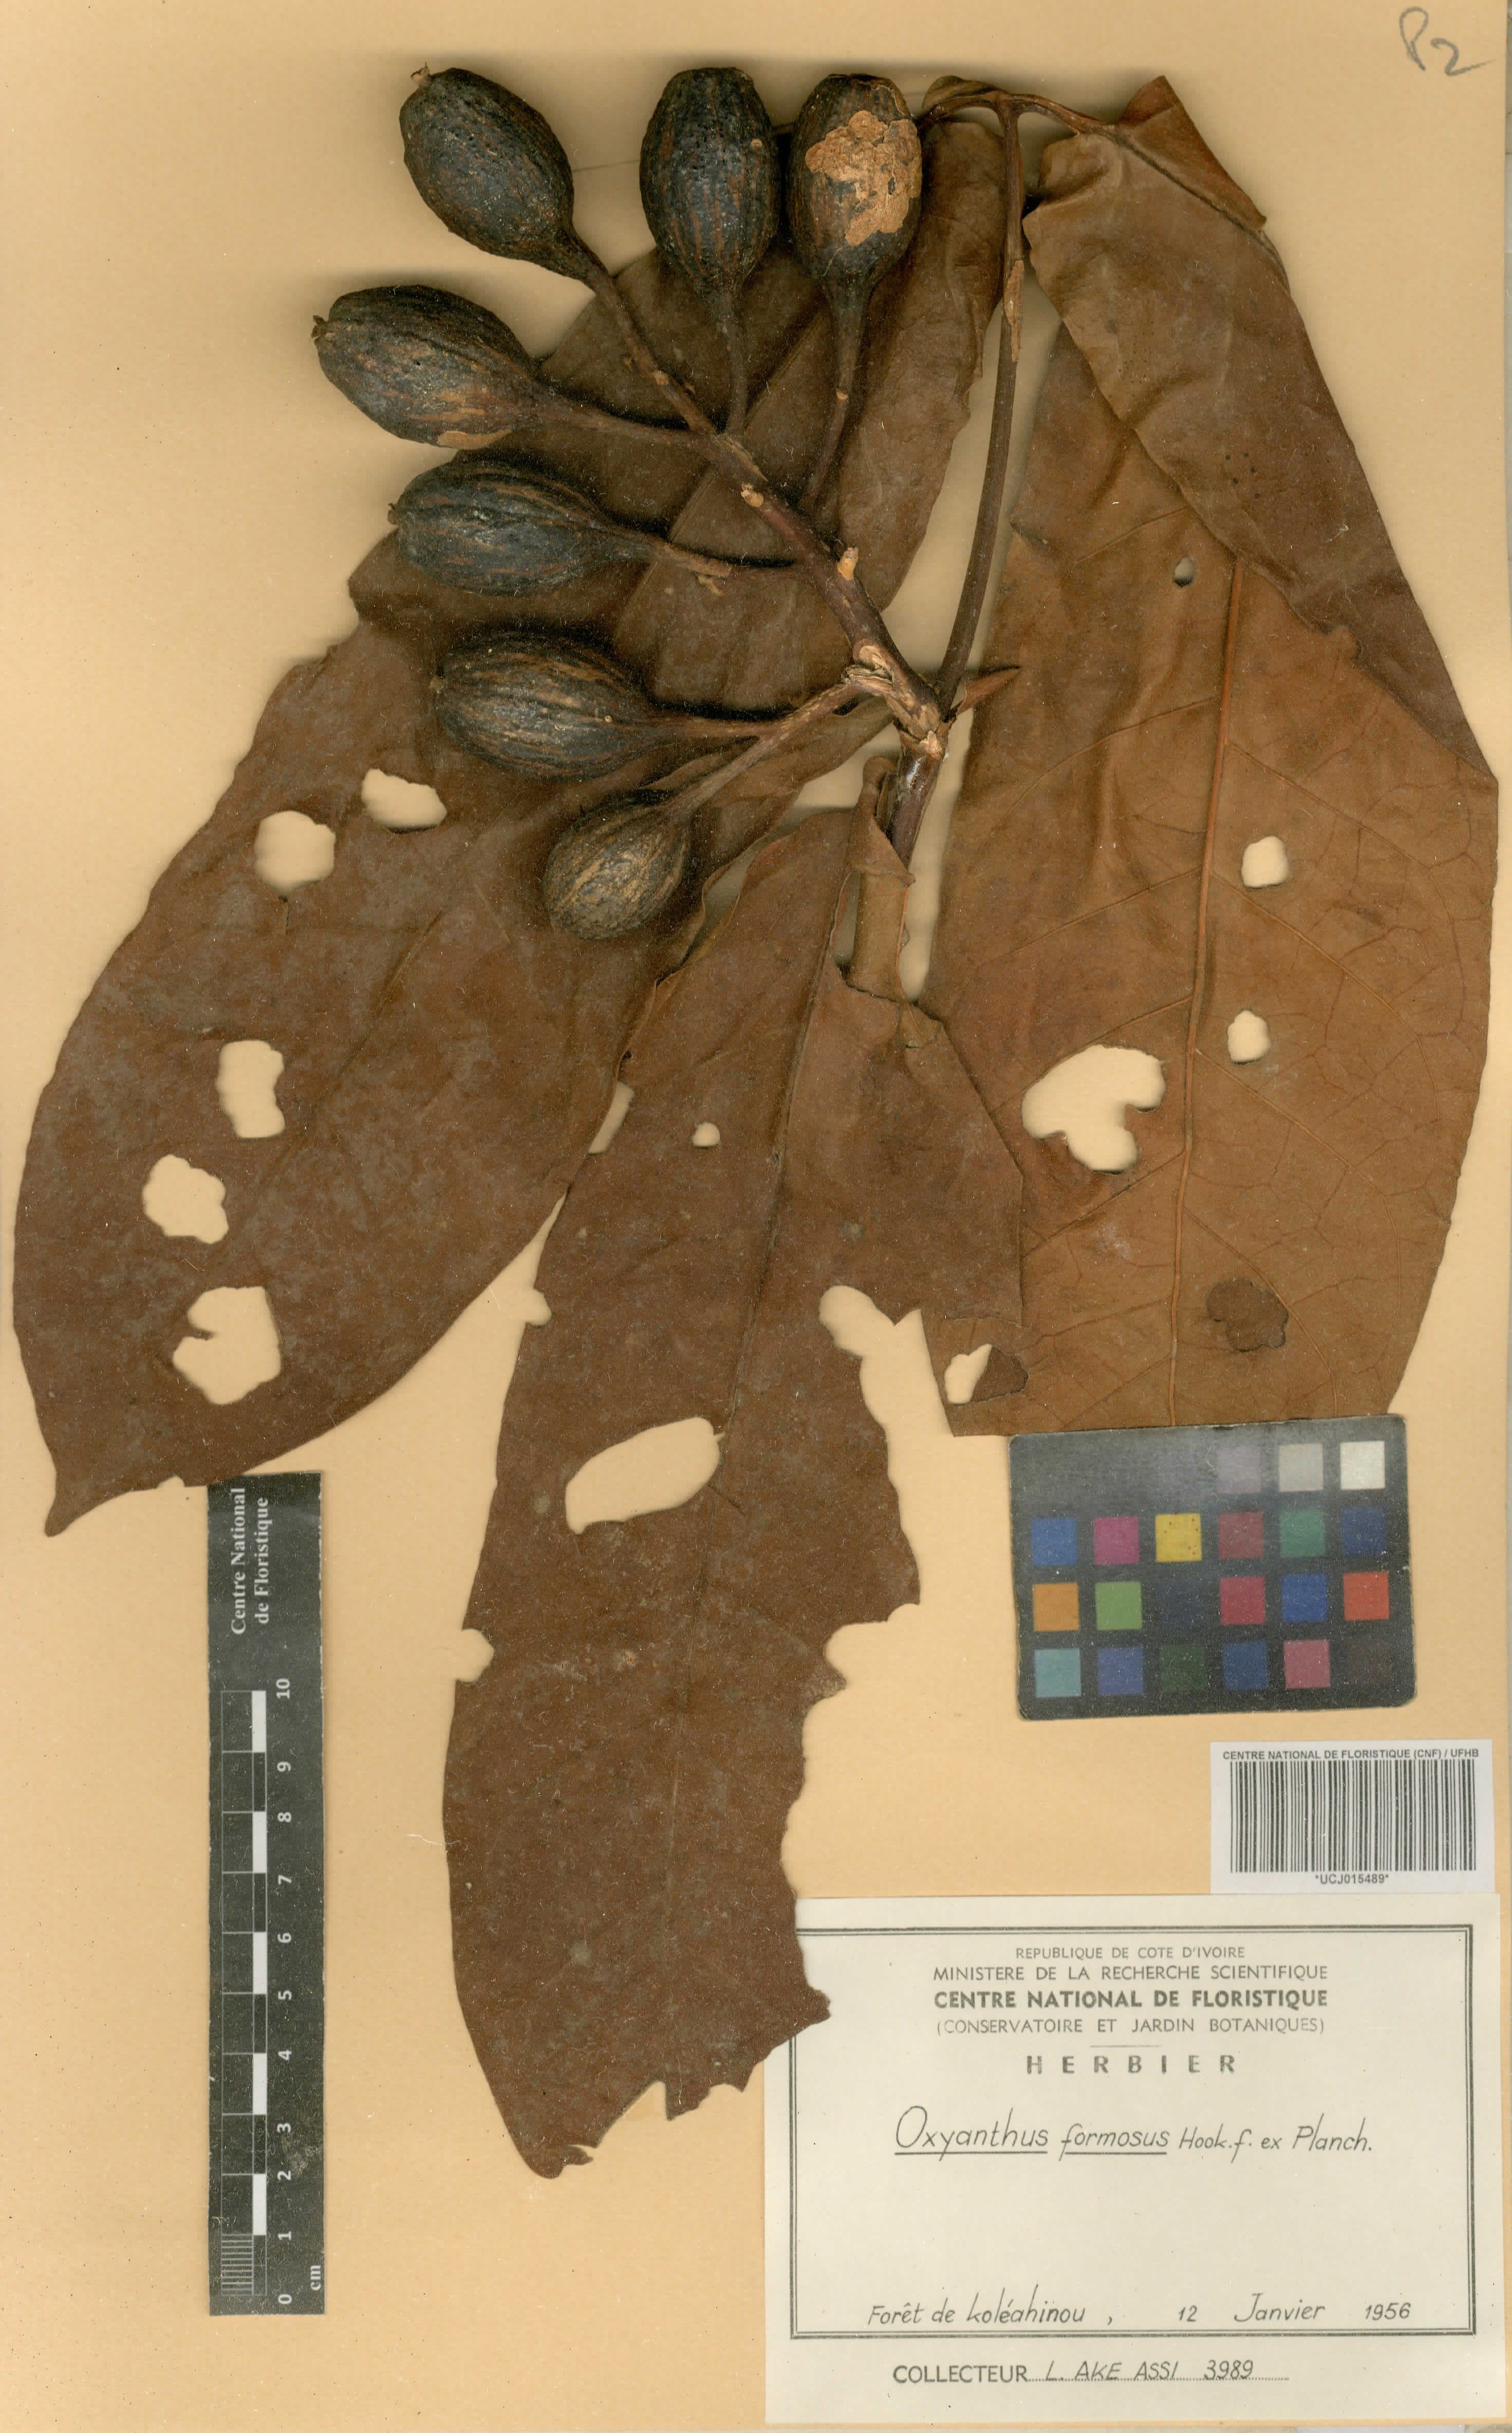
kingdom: Plantae
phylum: Tracheophyta
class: Magnoliopsida
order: Gentianales
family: Rubiaceae
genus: Oxyanthus
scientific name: Oxyanthus formosus
